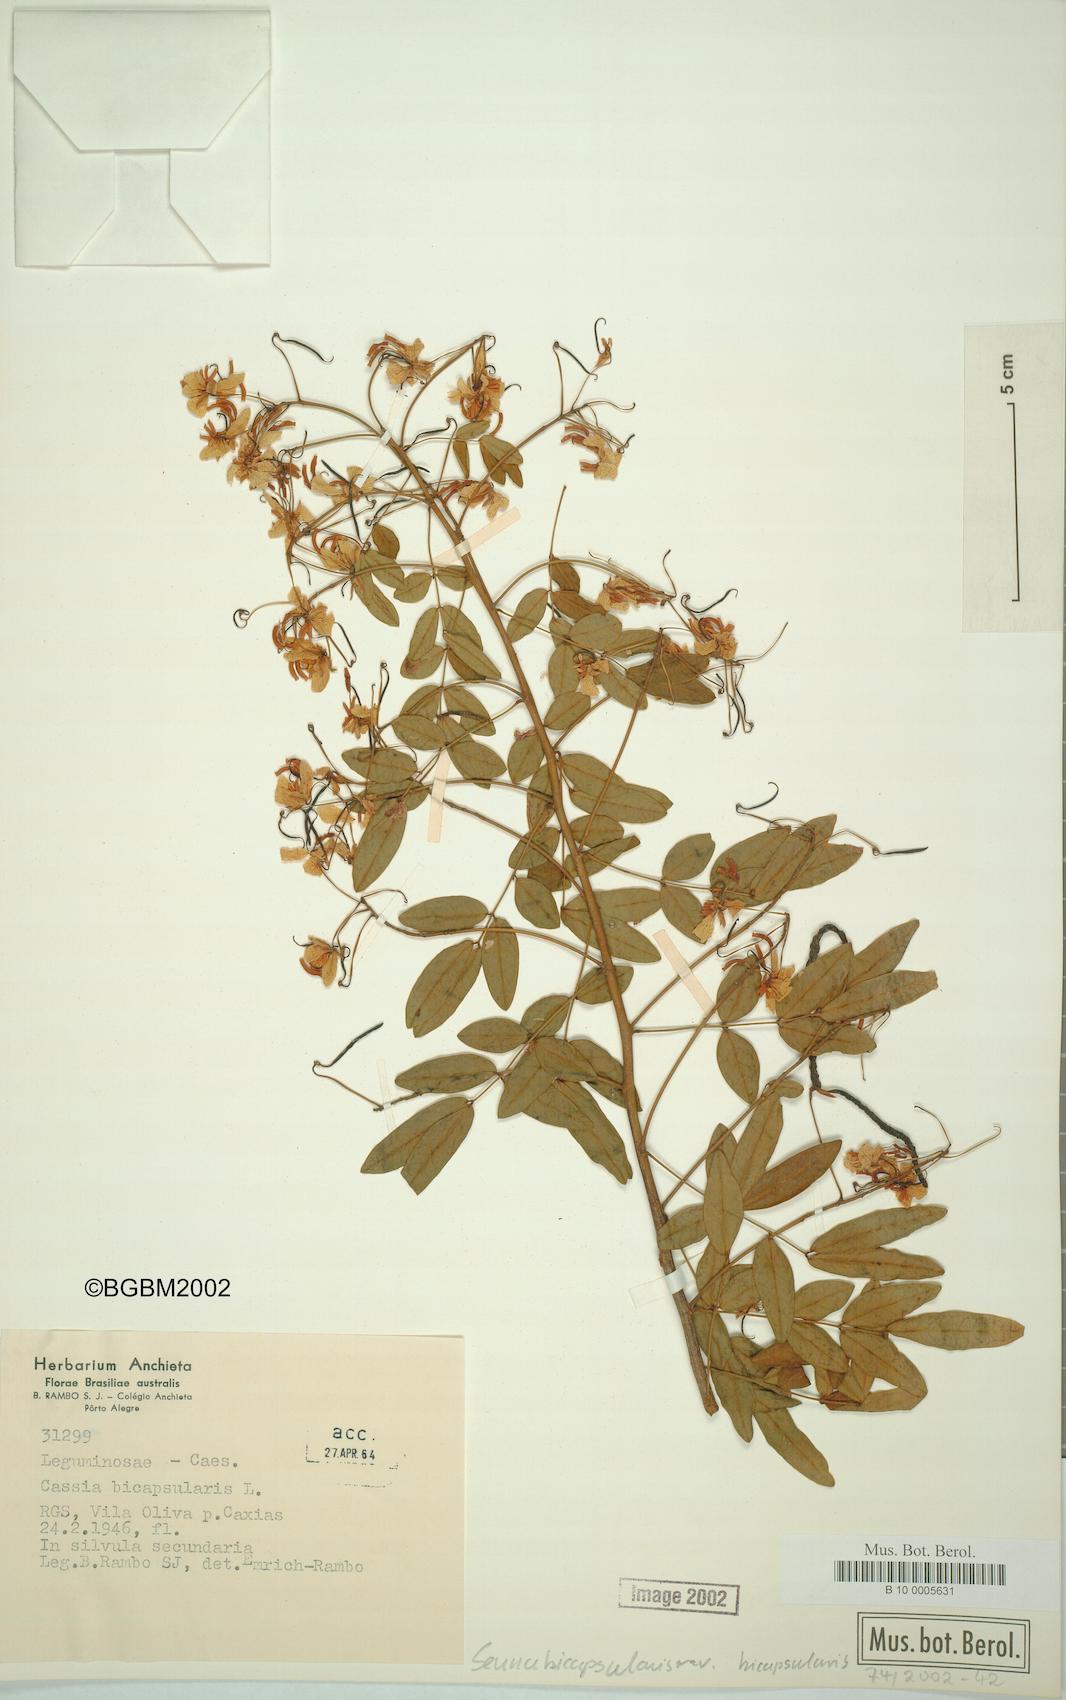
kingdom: Plantae
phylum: Tracheophyta
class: Magnoliopsida
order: Fabales
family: Fabaceae
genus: Senna
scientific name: Senna bicapsularis
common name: Christmasbush
